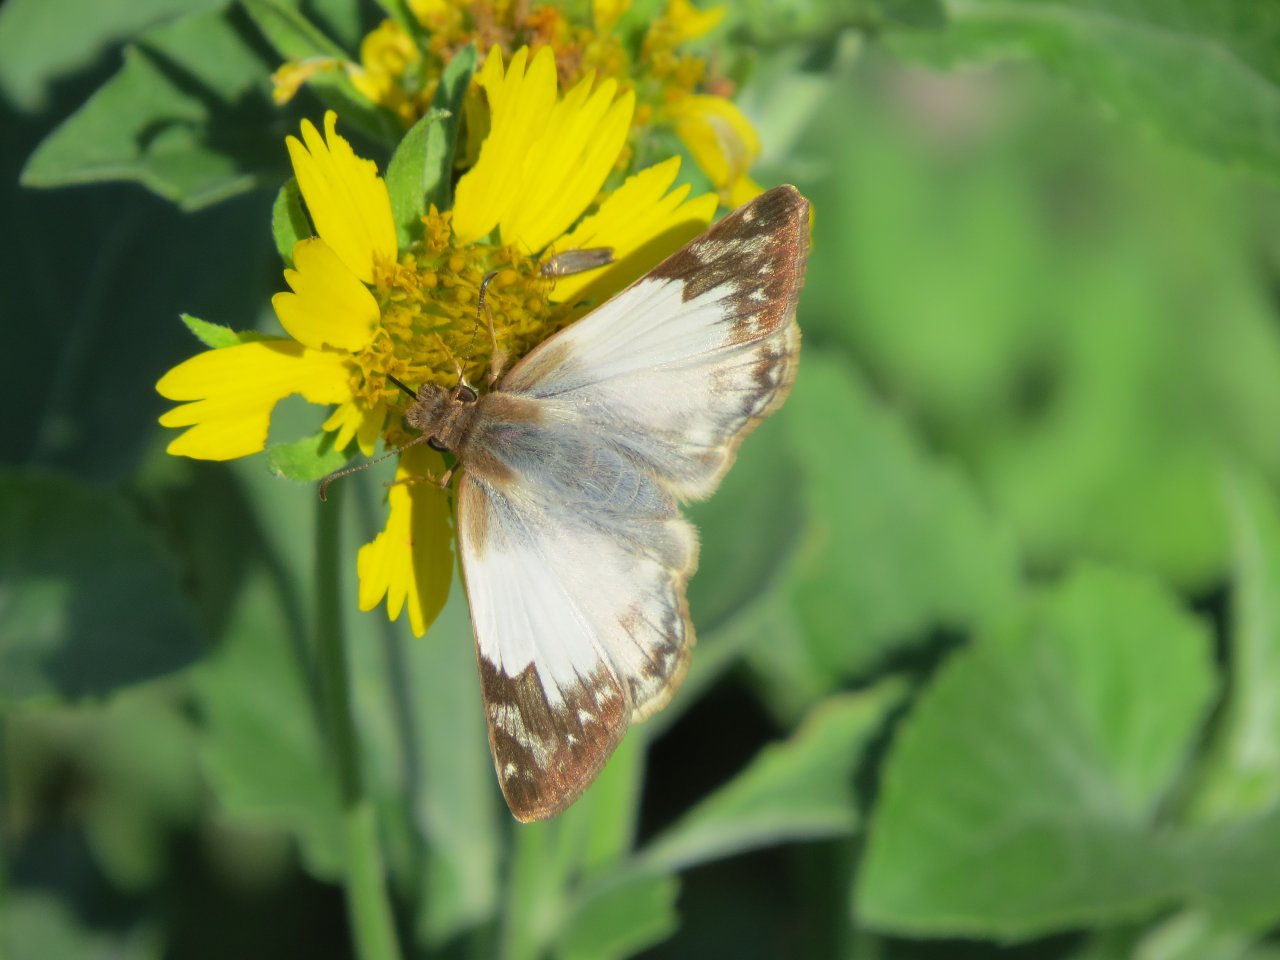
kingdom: Animalia
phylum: Arthropoda
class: Insecta
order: Lepidoptera
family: Hesperiidae
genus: Heliopetes
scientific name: Heliopetes laviana
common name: Laviana White-Skipper
